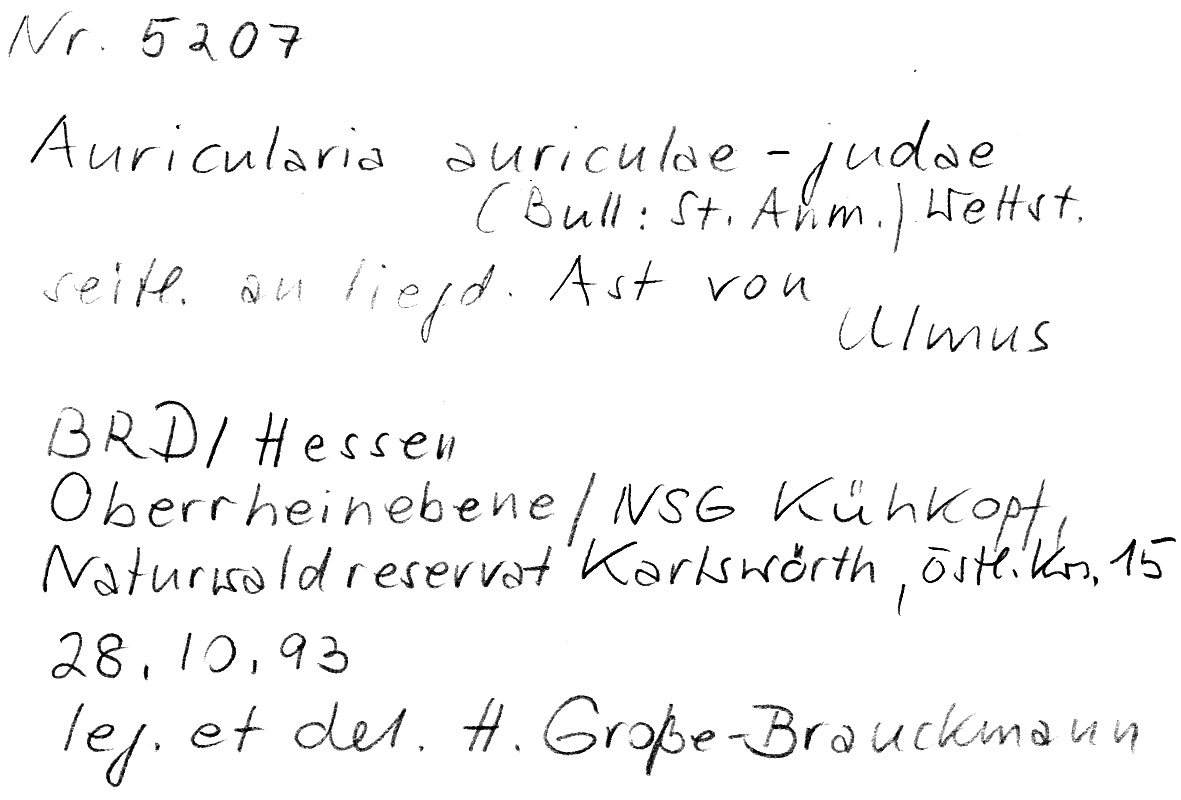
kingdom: Plantae
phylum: Tracheophyta
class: Magnoliopsida
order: Rosales
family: Ulmaceae
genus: Ulmus
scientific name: Ulmus
